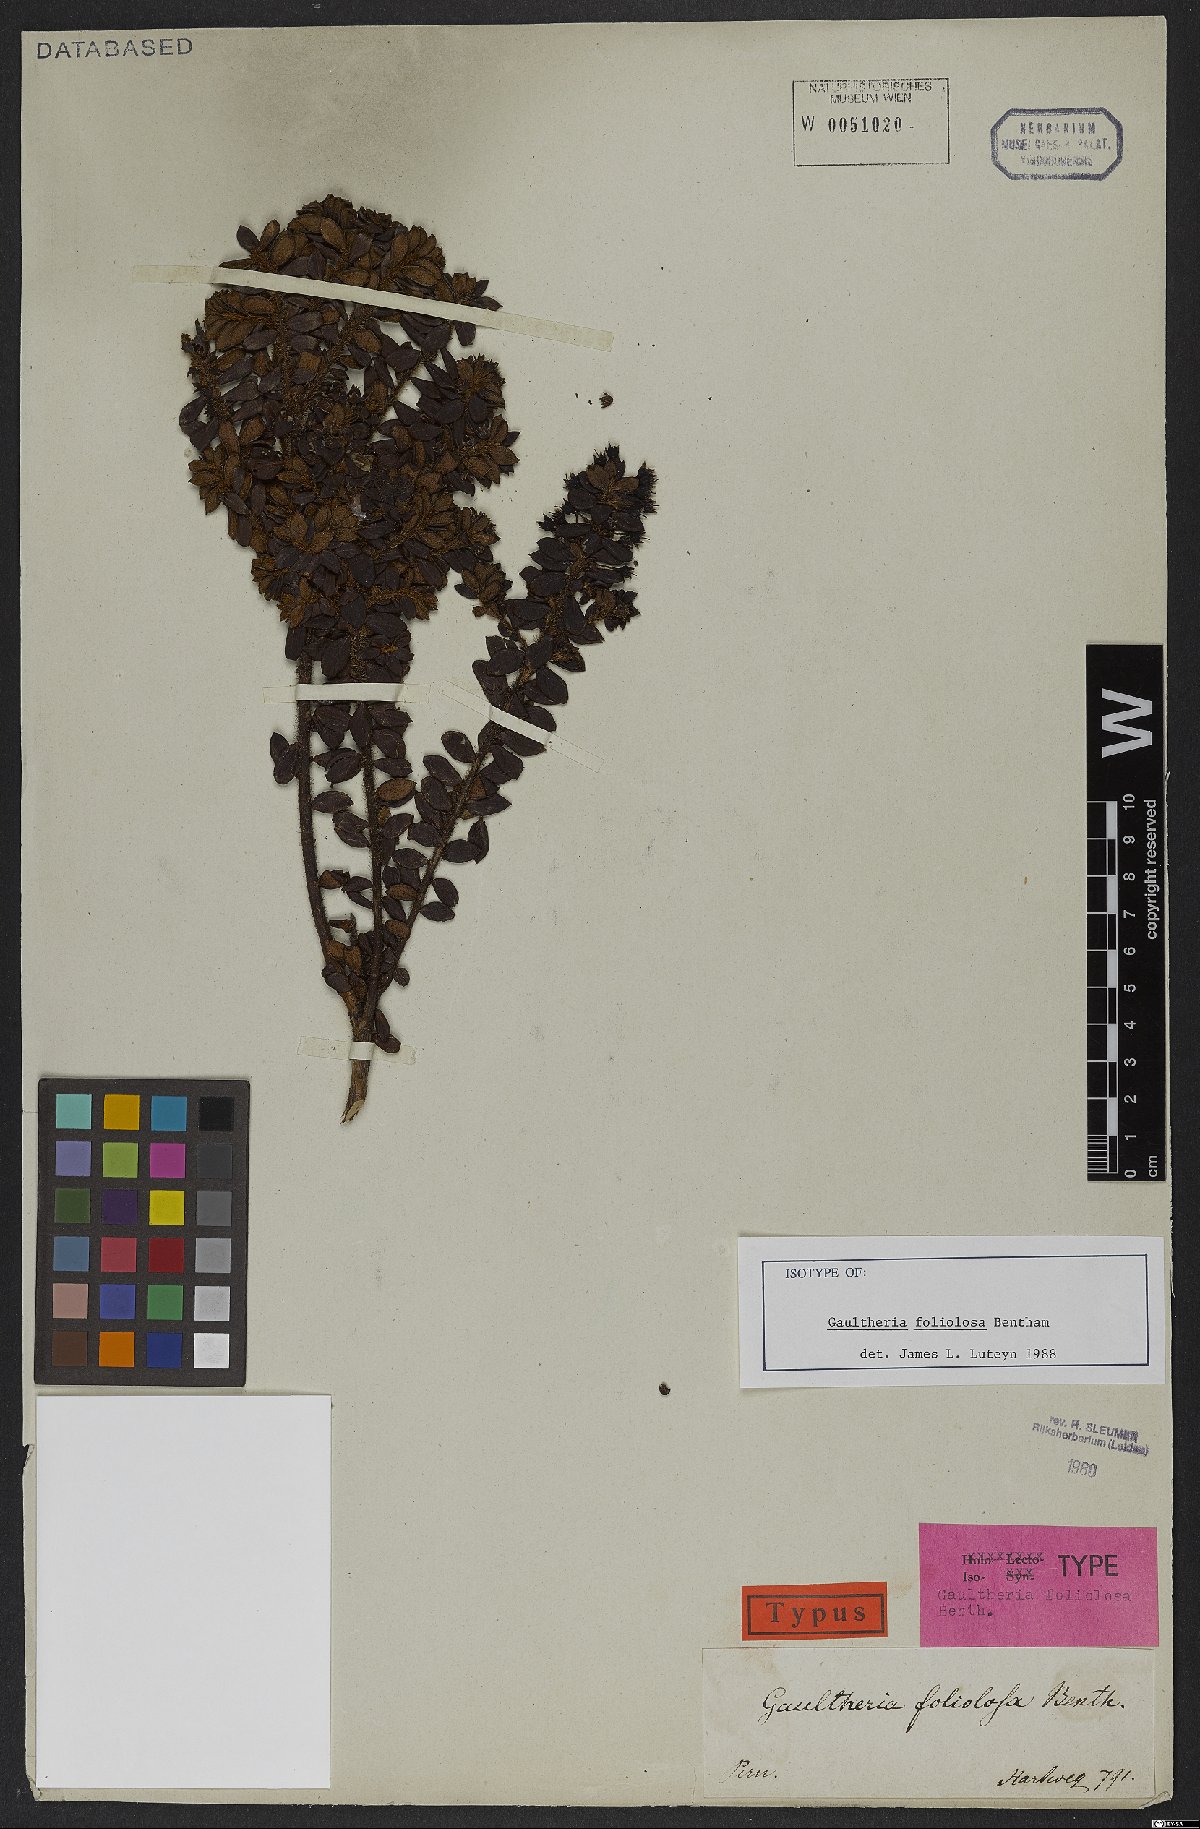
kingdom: Plantae
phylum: Tracheophyta
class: Magnoliopsida
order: Ericales
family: Ericaceae
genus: Gaultheria
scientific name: Gaultheria foliolosa
